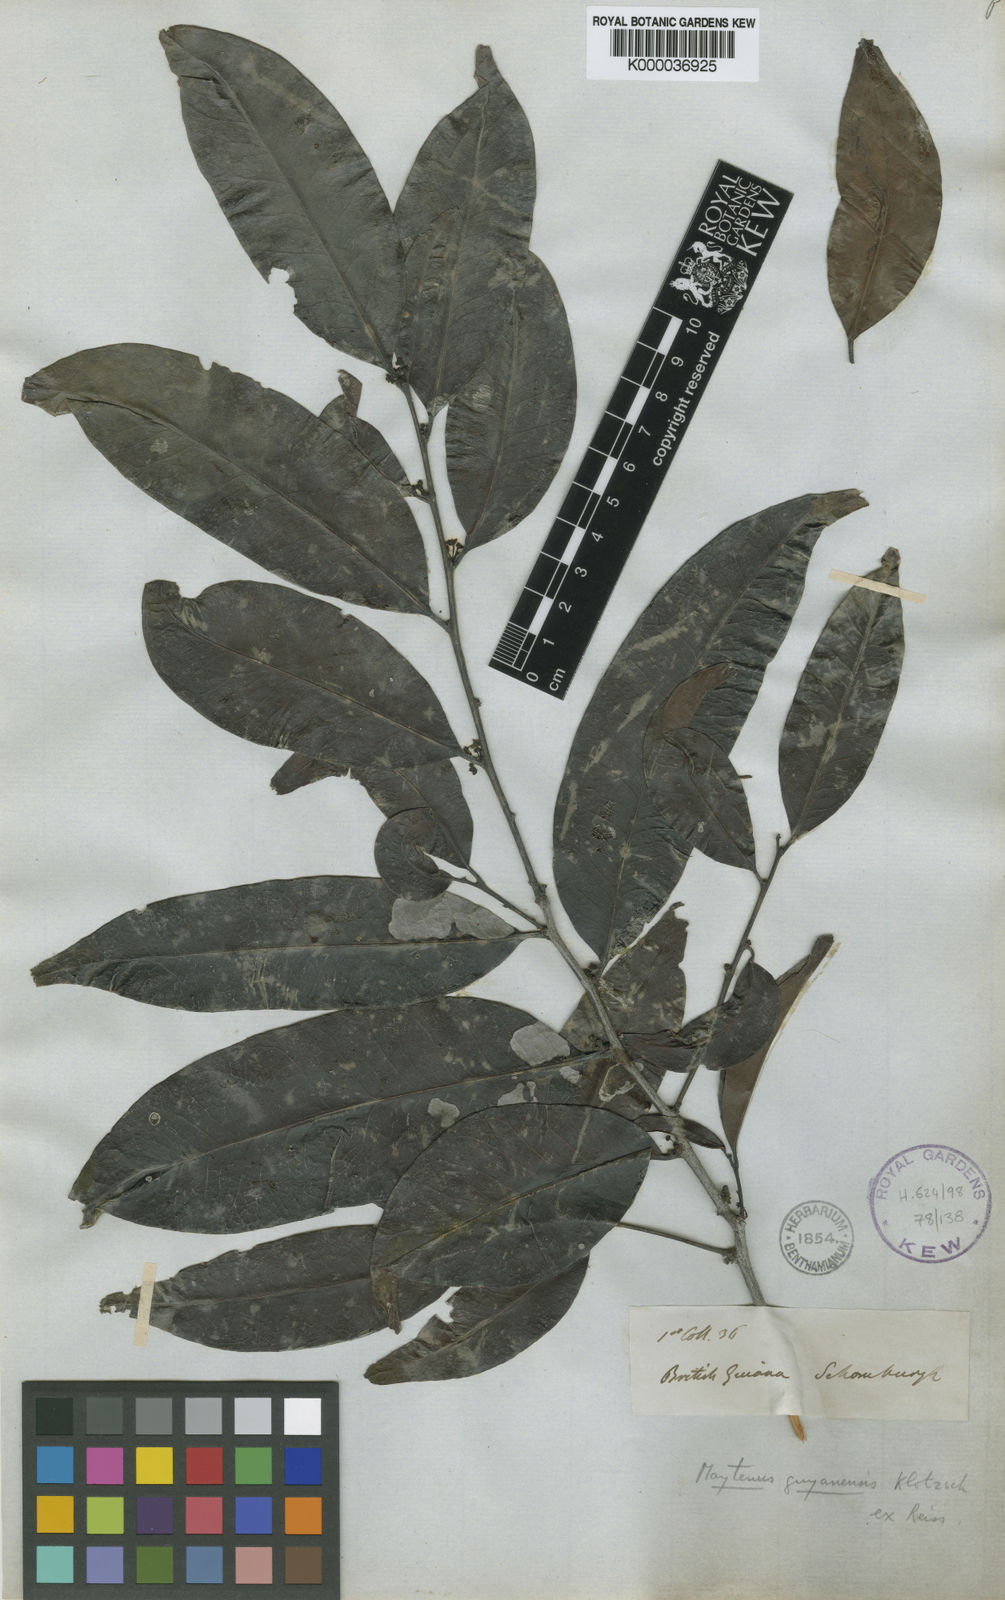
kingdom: Plantae
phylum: Tracheophyta
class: Magnoliopsida
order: Celastrales
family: Celastraceae
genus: Monteverdia
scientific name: Monteverdia guyanensis
